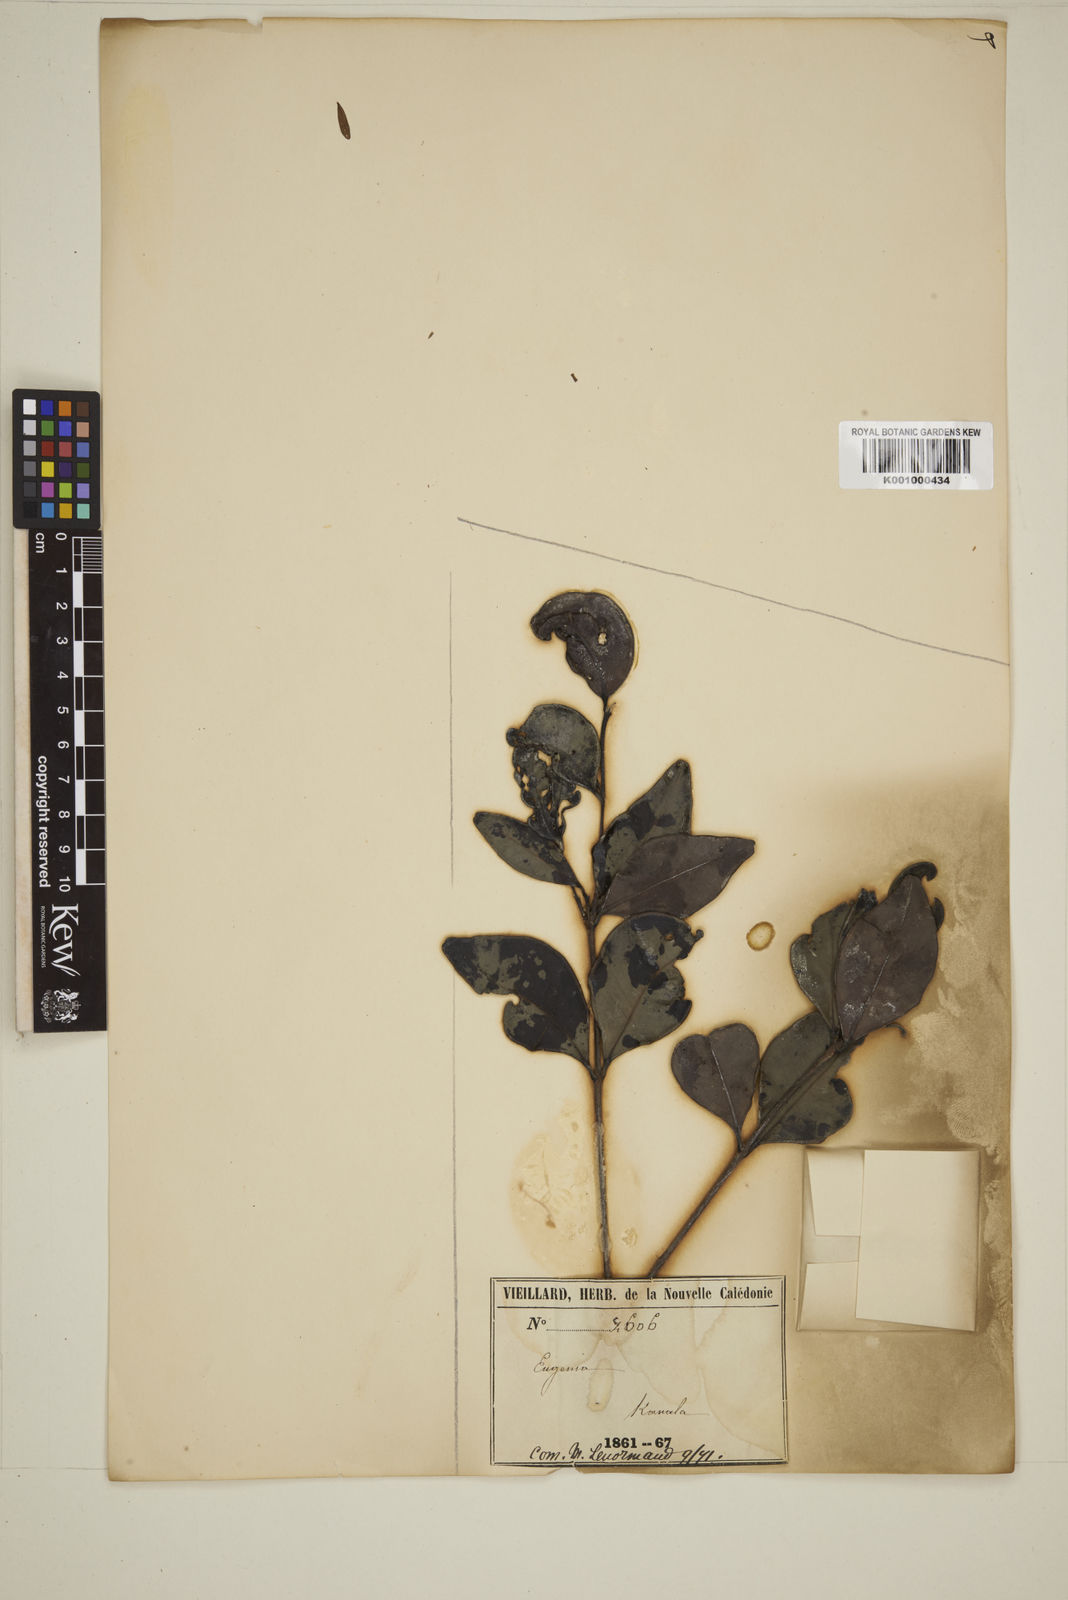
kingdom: Plantae
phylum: Tracheophyta
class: Magnoliopsida
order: Myrtales
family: Myrtaceae
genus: Eugenia
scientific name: Eugenia
